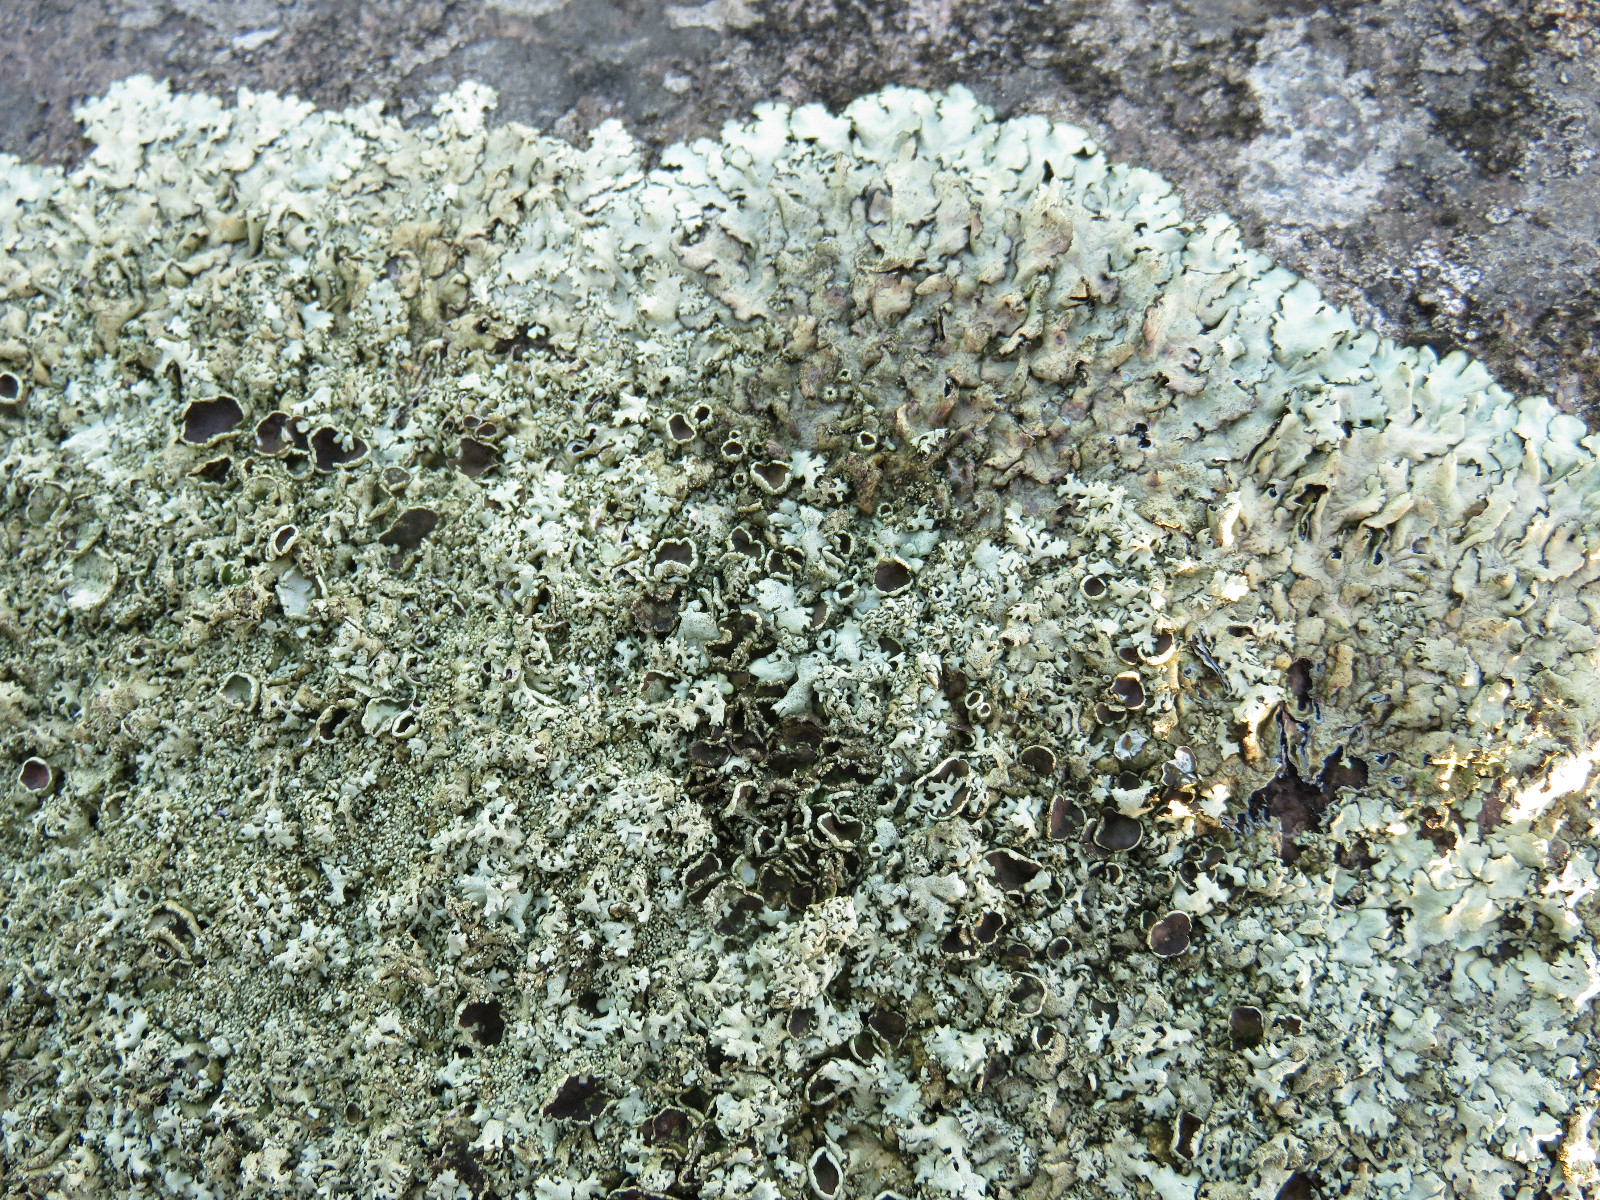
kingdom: Fungi
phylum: Ascomycota
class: Lecanoromycetes
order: Lecanorales
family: Parmeliaceae
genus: Xanthoparmelia
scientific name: Xanthoparmelia conspersa
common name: messing-skållav
